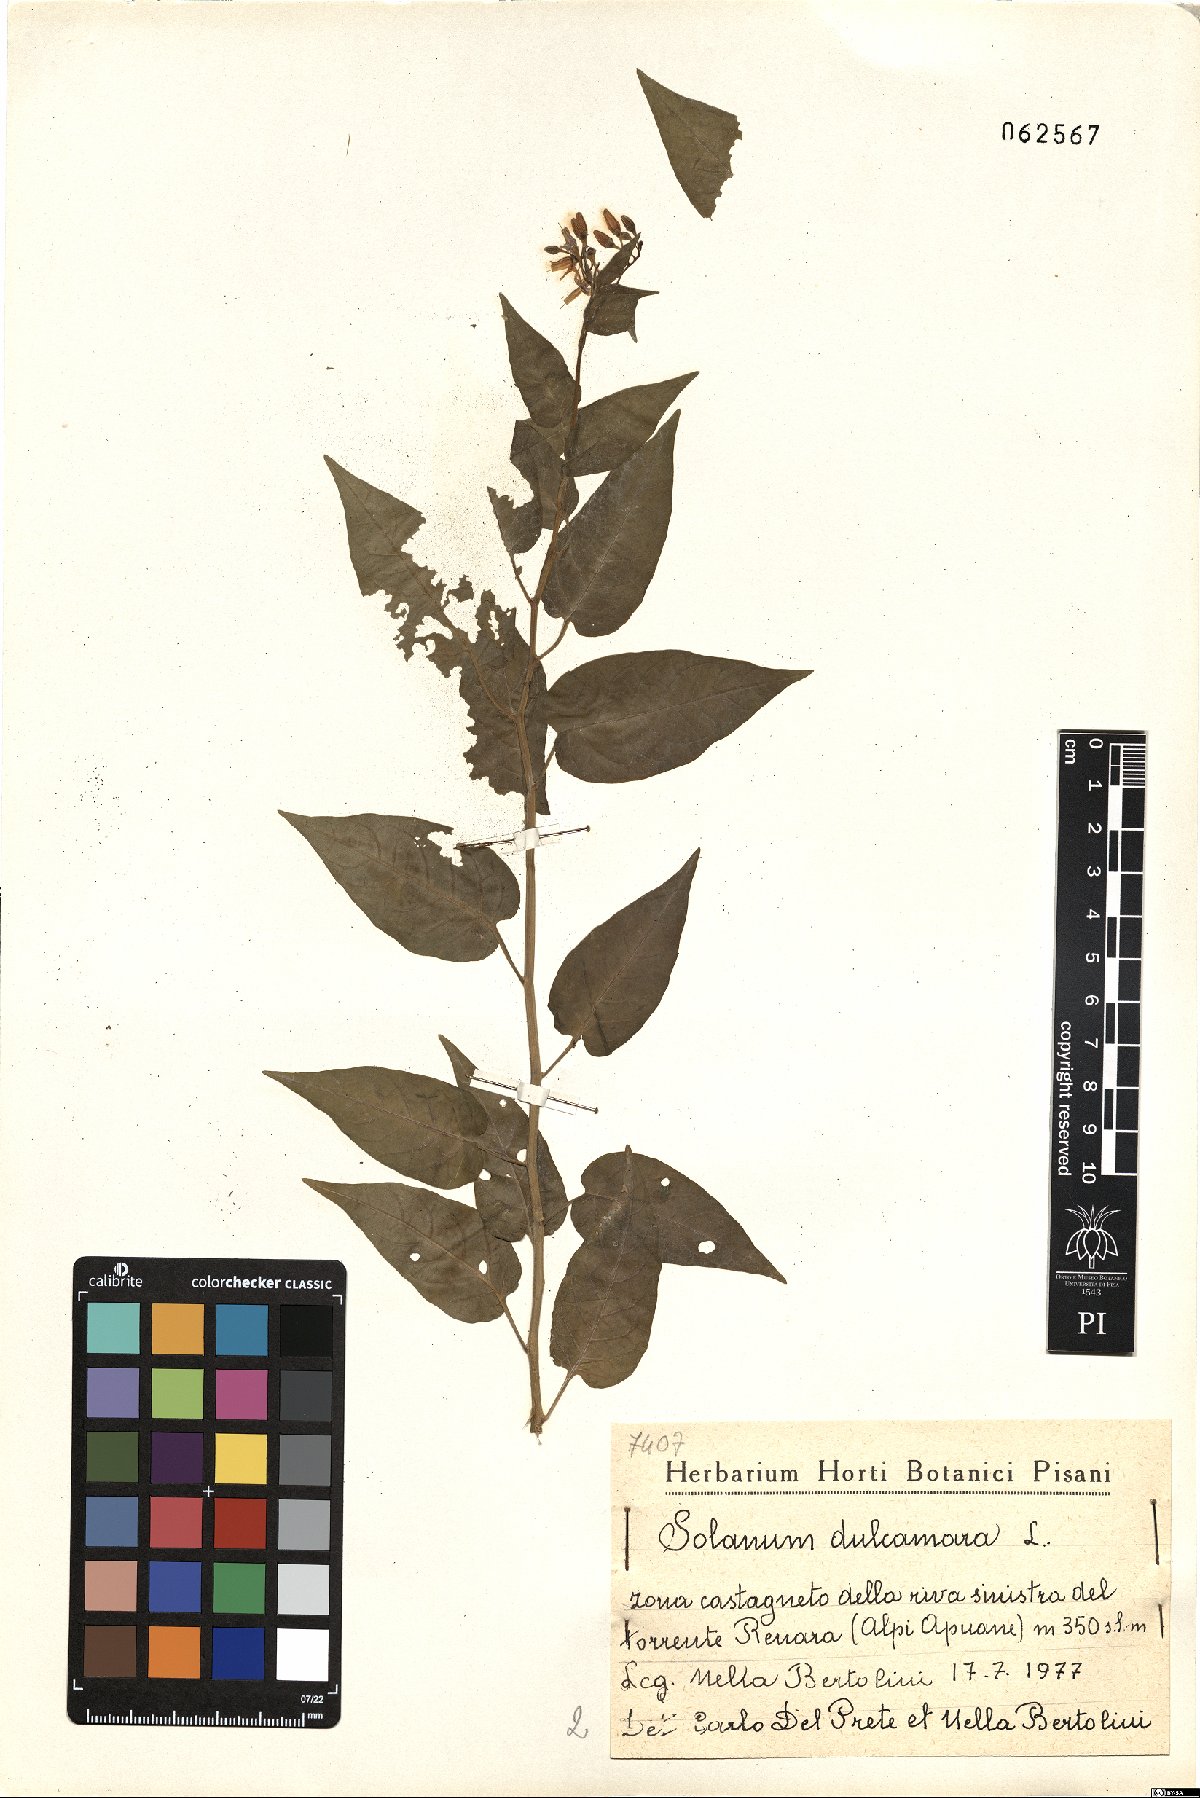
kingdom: Plantae
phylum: Tracheophyta
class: Magnoliopsida
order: Solanales
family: Solanaceae
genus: Solanum
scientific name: Solanum dulcamara
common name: Climbing nightshade
